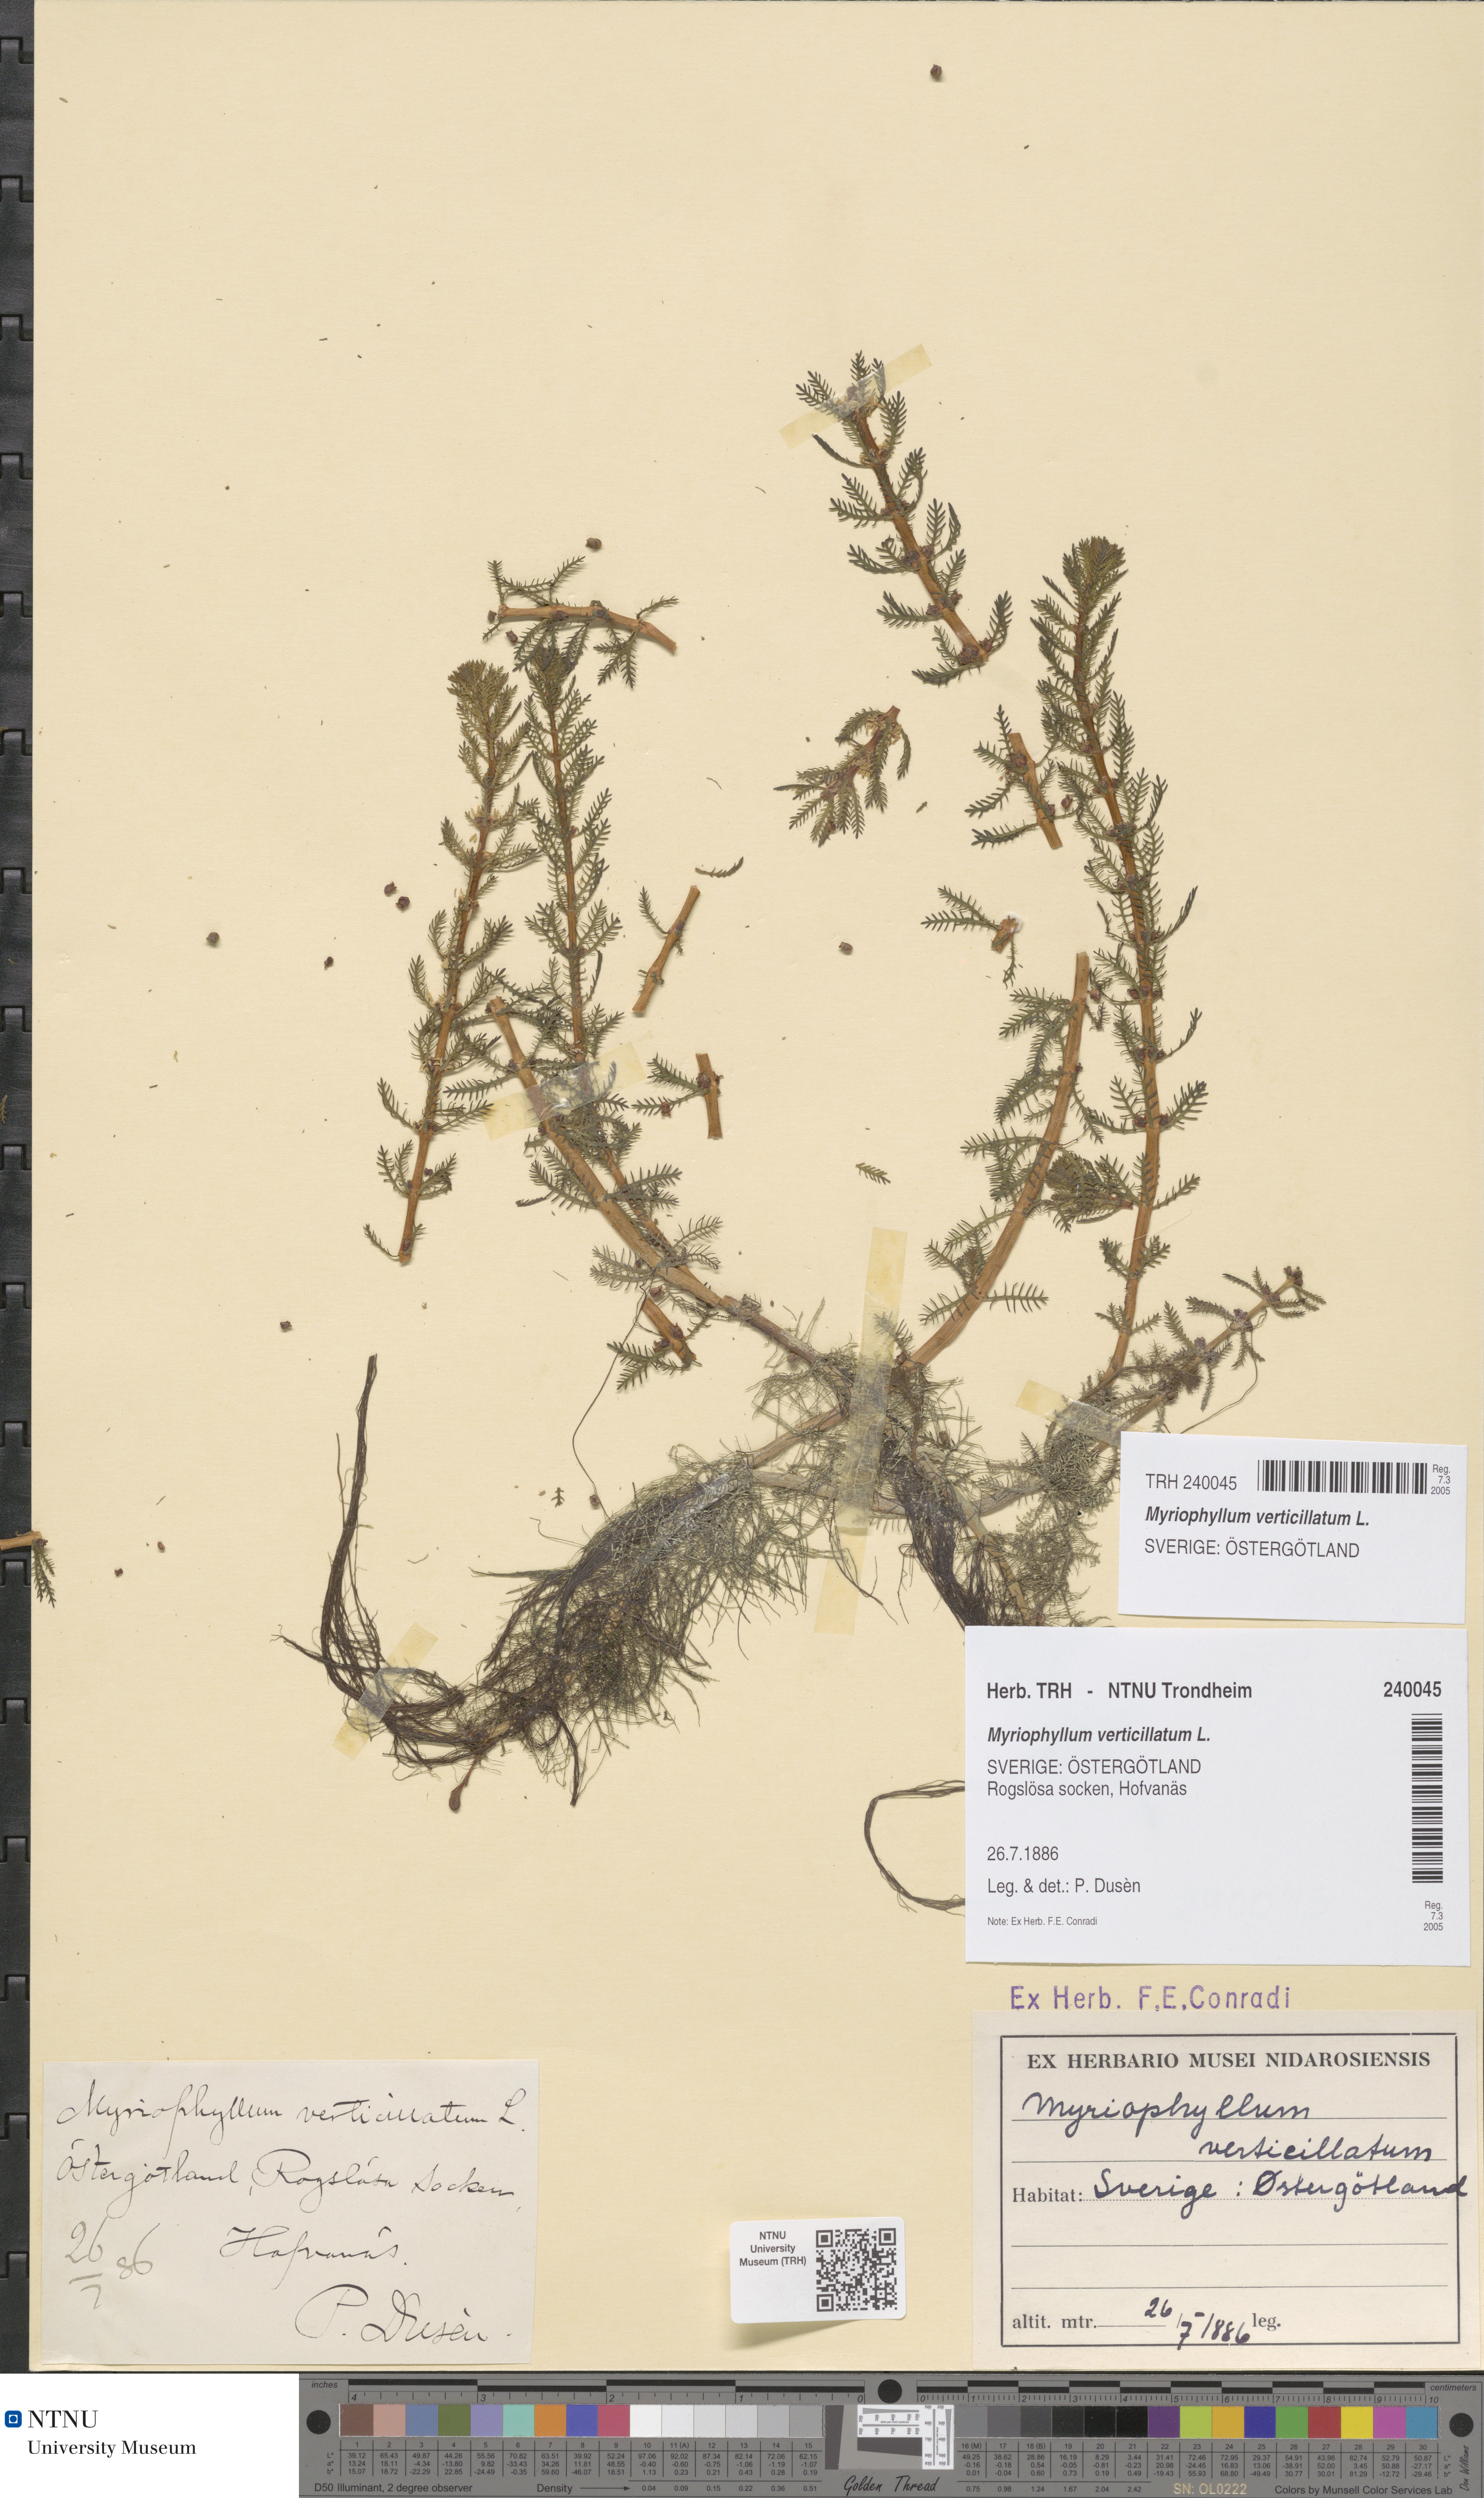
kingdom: Plantae
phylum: Tracheophyta
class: Magnoliopsida
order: Saxifragales
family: Haloragaceae
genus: Myriophyllum
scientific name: Myriophyllum verticillatum
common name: Whorled water-milfoil
